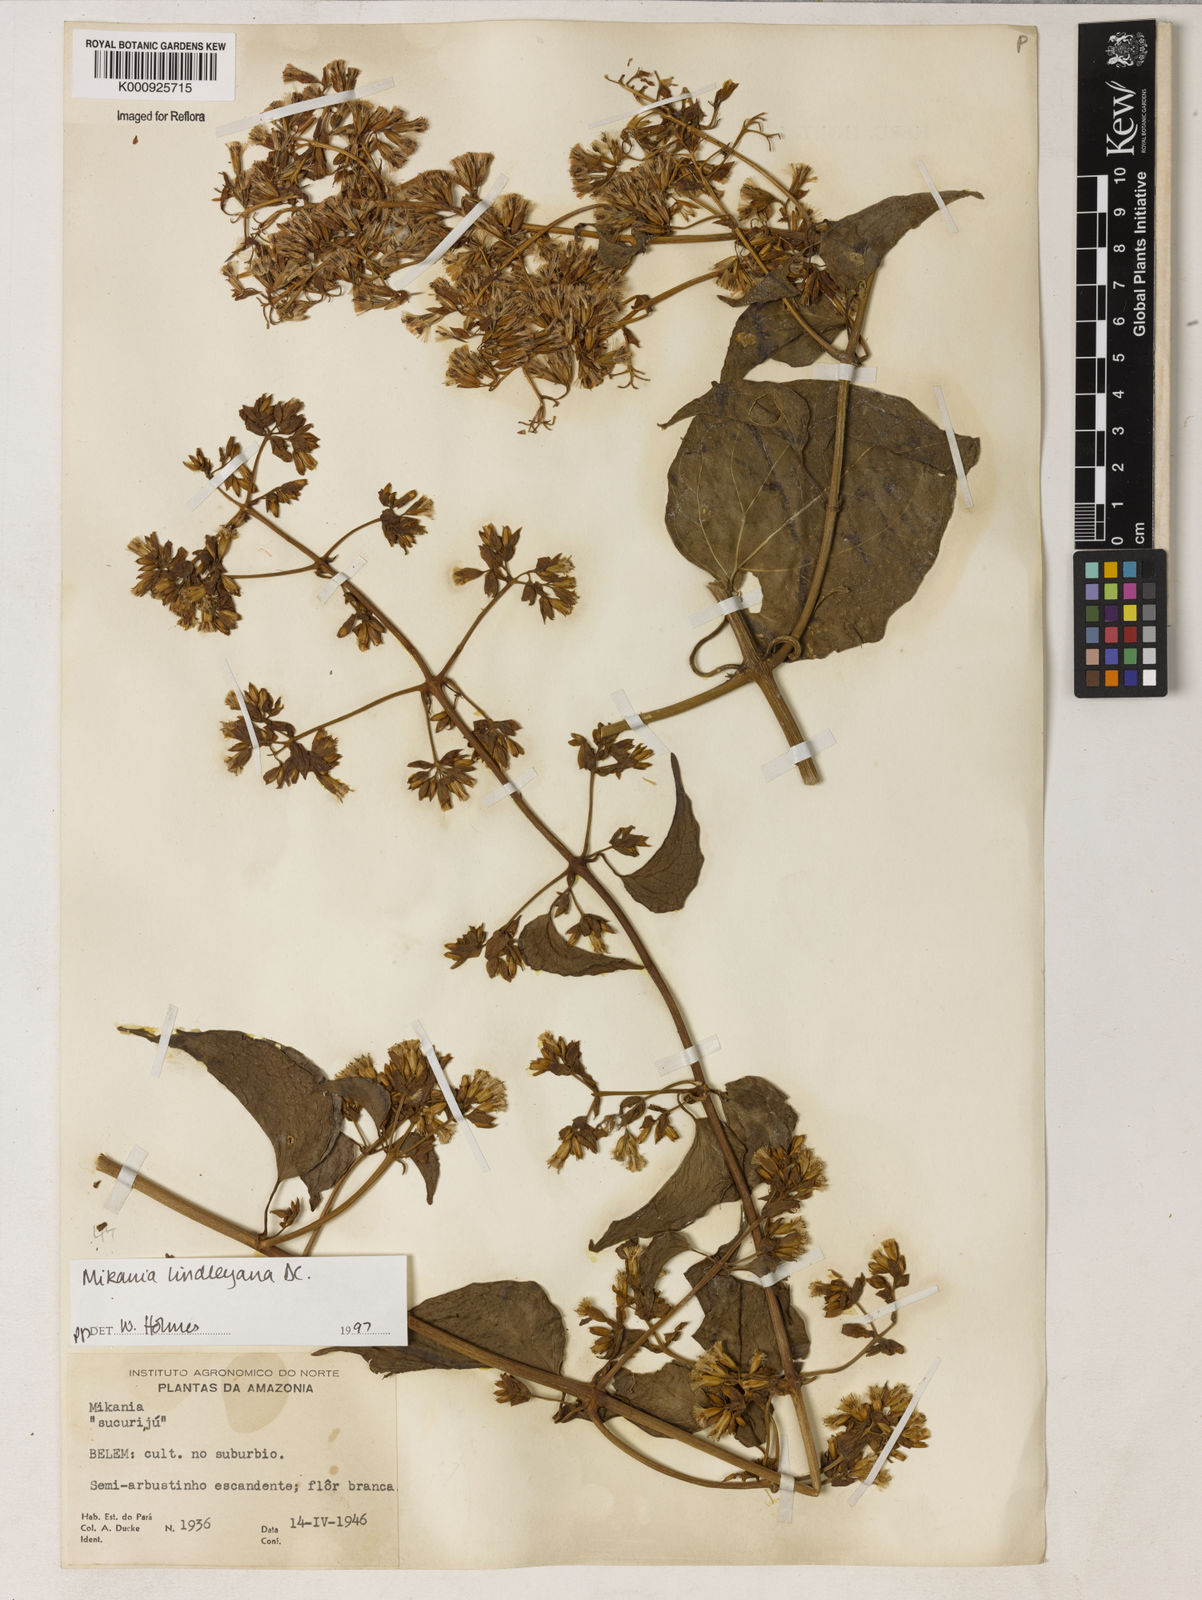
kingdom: Plantae
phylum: Tracheophyta
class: Magnoliopsida
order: Asterales
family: Asteraceae
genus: Mikania
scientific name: Mikania lindleyana
